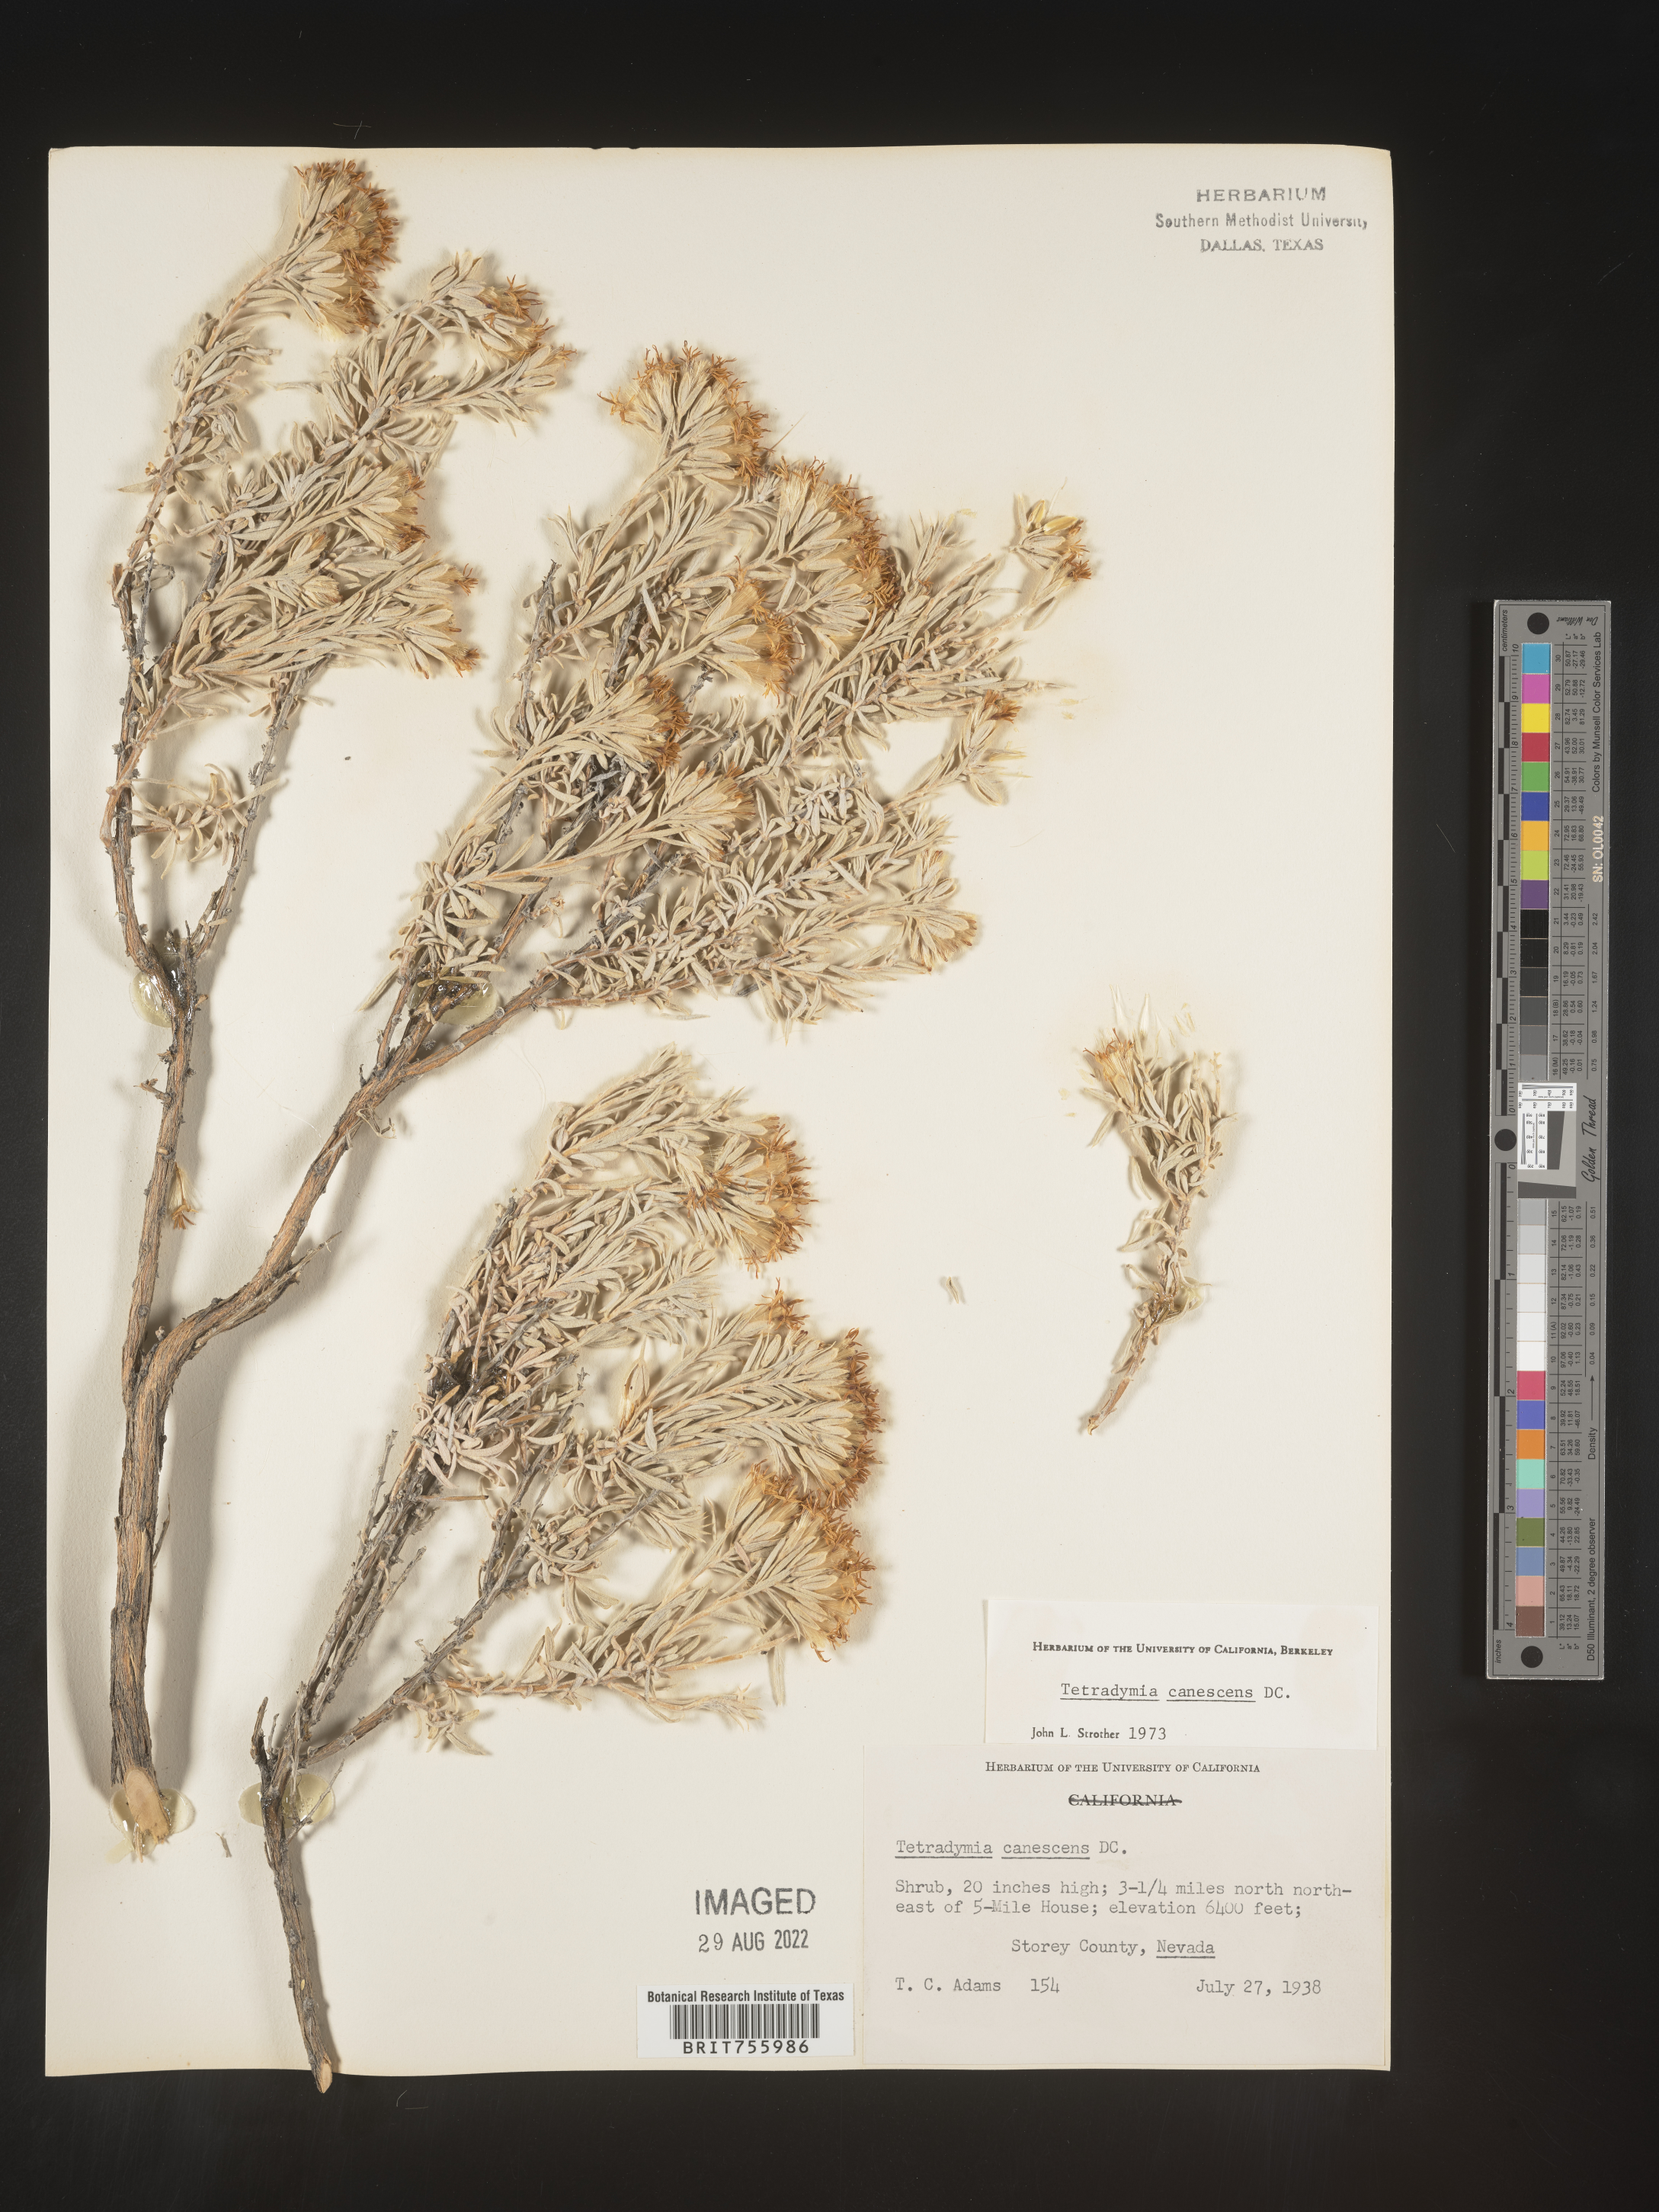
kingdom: Plantae
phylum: Tracheophyta
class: Magnoliopsida
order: Asterales
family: Asteraceae
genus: Tetradymia
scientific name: Tetradymia canescens
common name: Spineless horsebrush
